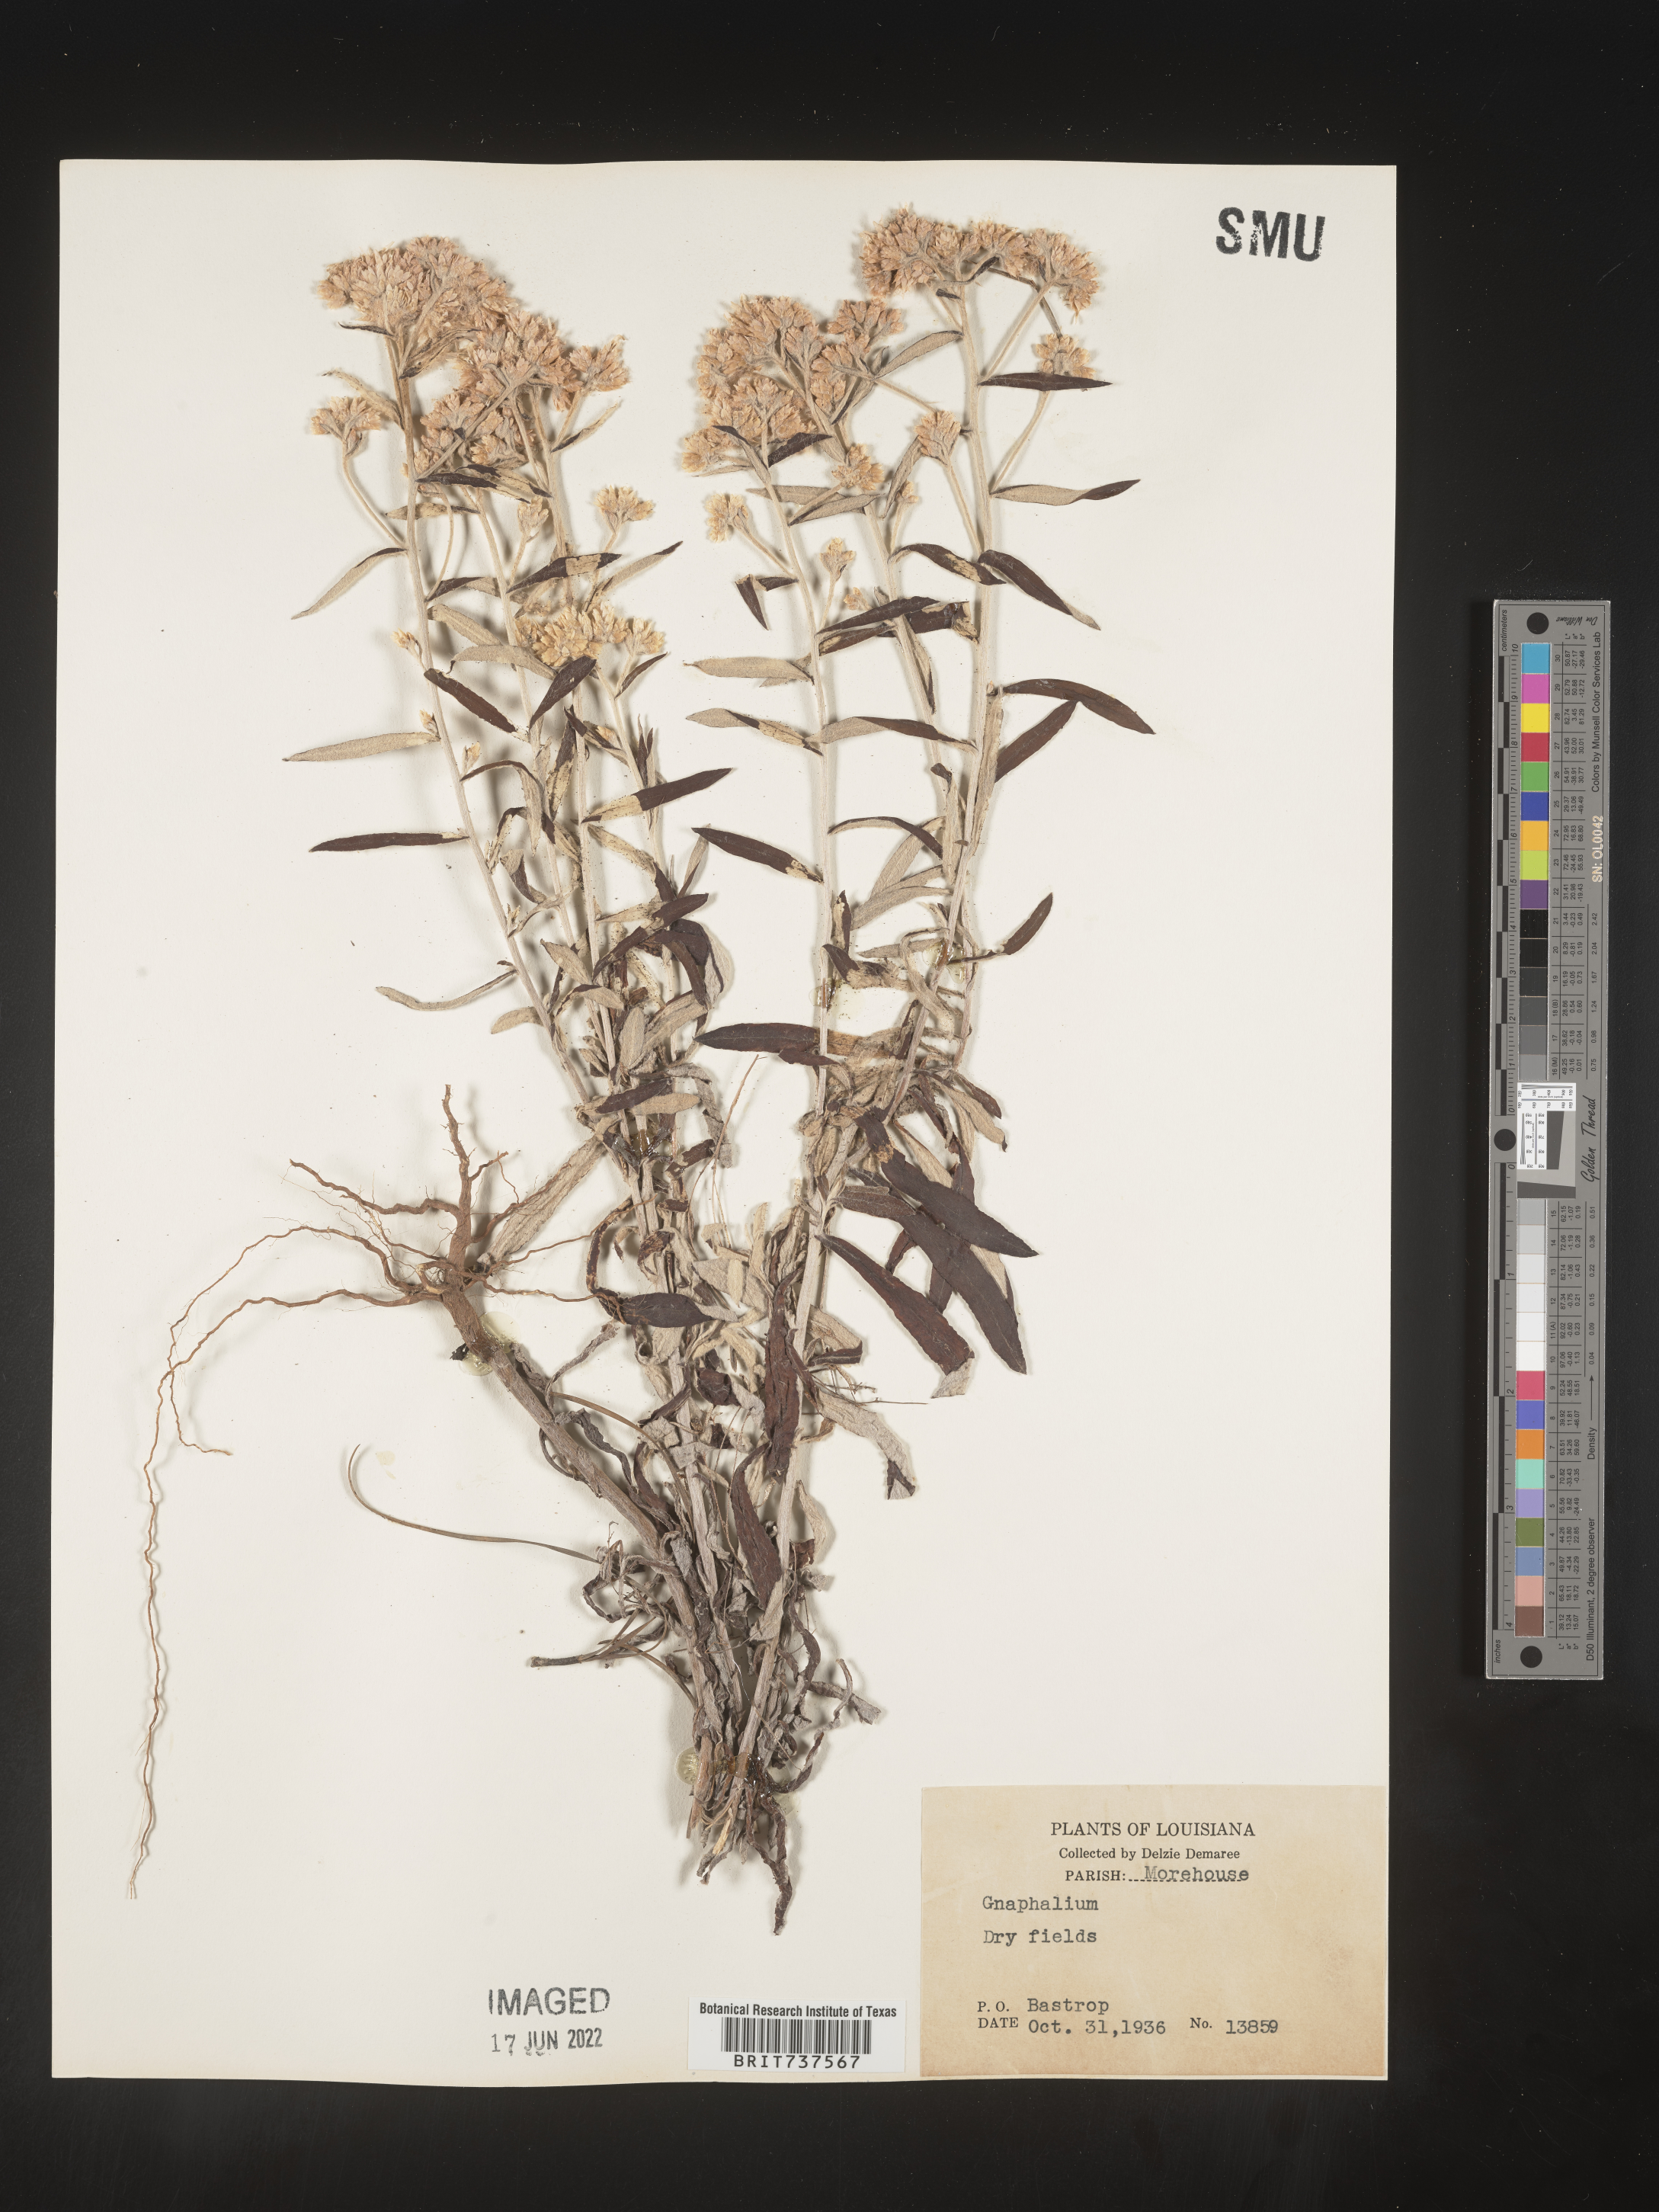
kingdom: Plantae
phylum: Tracheophyta
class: Magnoliopsida
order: Asterales
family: Asteraceae
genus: Pseudognaphalium
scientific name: Pseudognaphalium obtusifolium
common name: Eastern rabbit-tobacco
